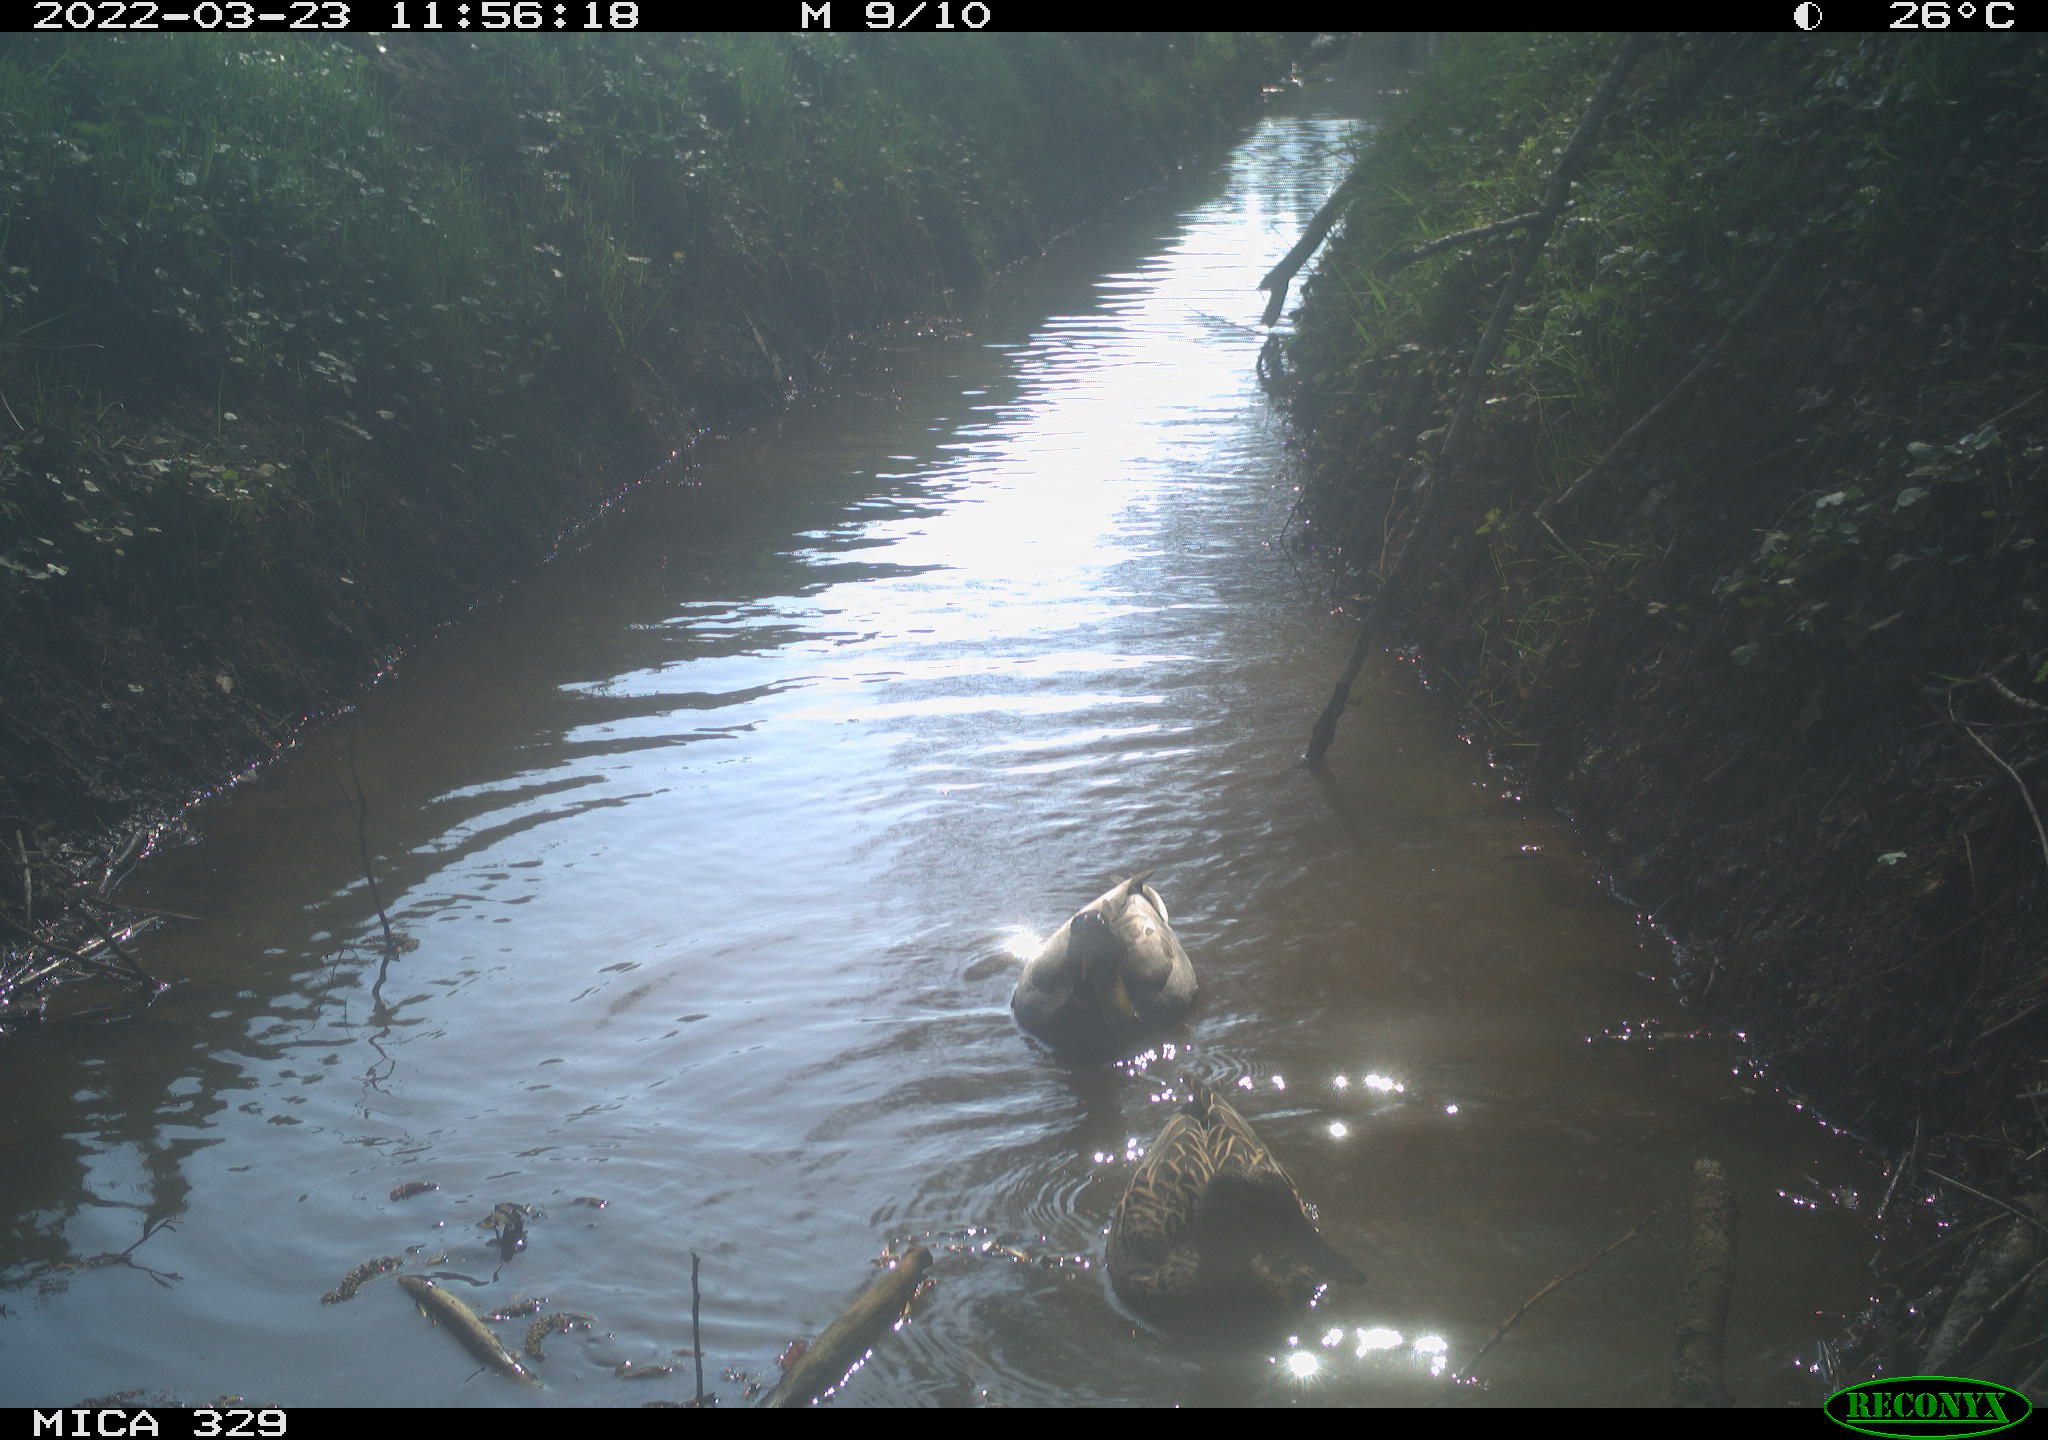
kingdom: Animalia
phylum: Chordata
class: Aves
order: Anseriformes
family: Anatidae
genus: Anas
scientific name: Anas platyrhynchos
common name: Mallard
